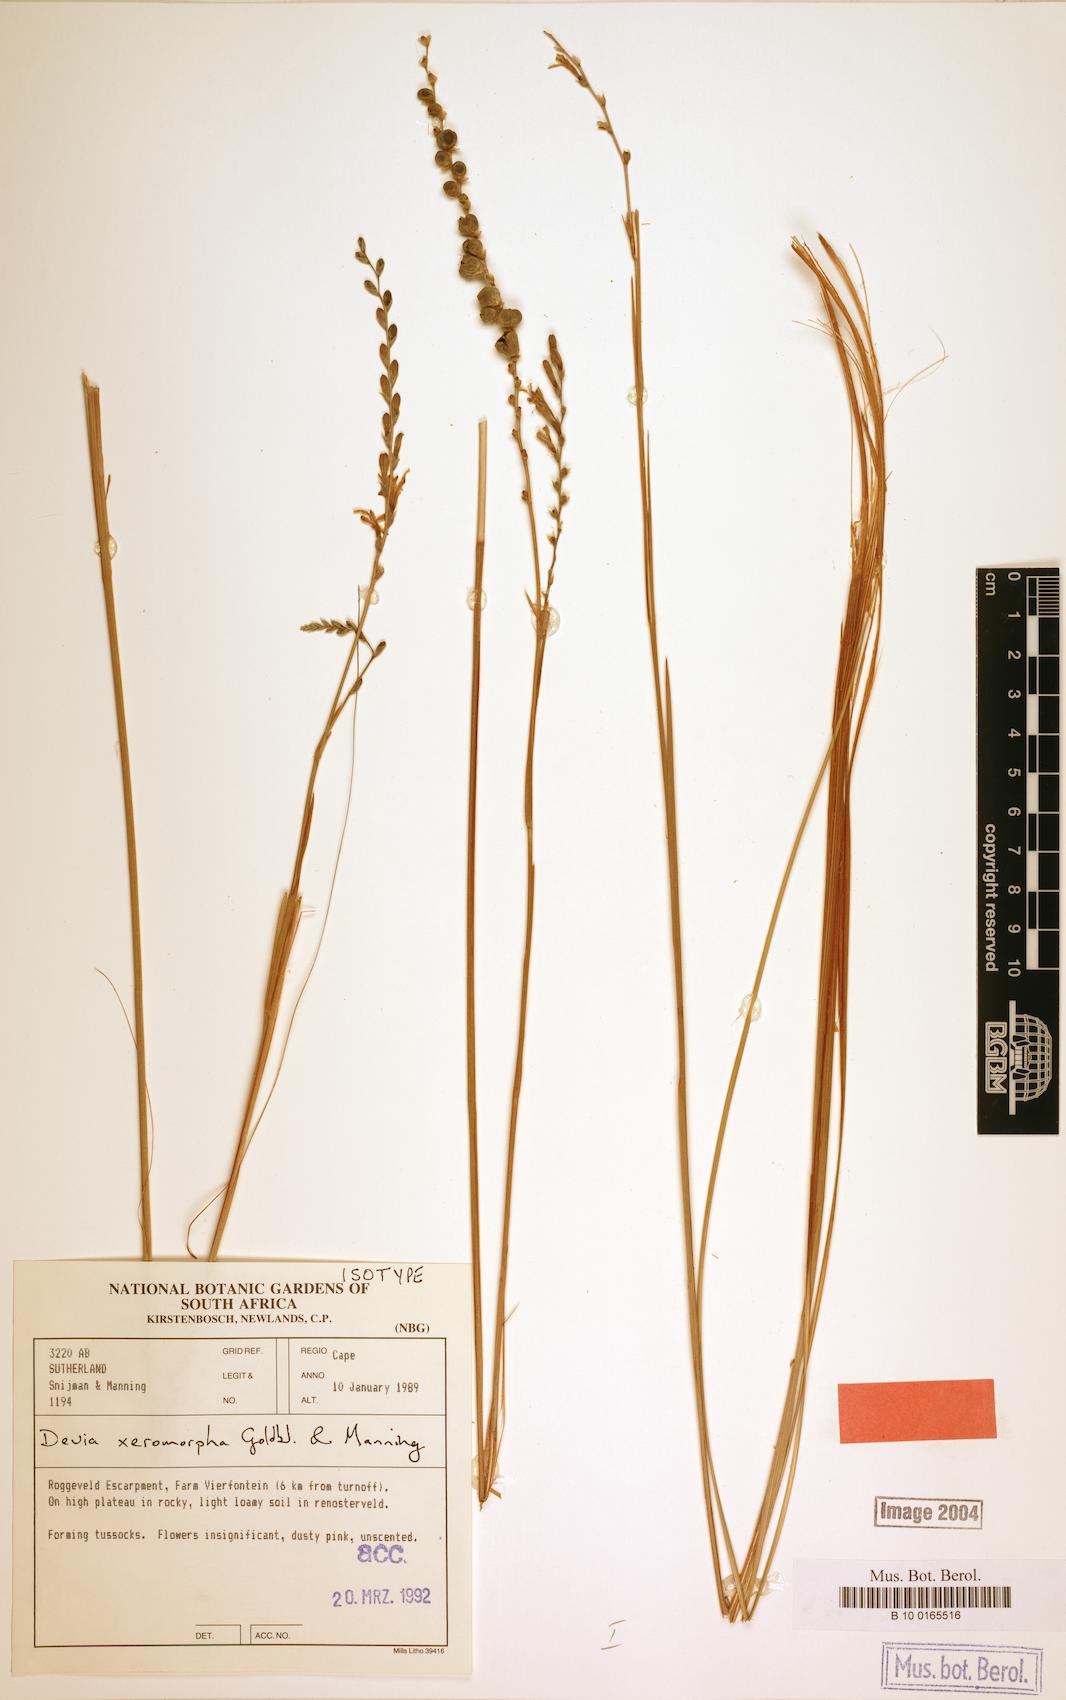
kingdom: Plantae
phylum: Tracheophyta
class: Liliopsida
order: Asparagales
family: Iridaceae
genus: Devia
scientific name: Devia xeromorpha
